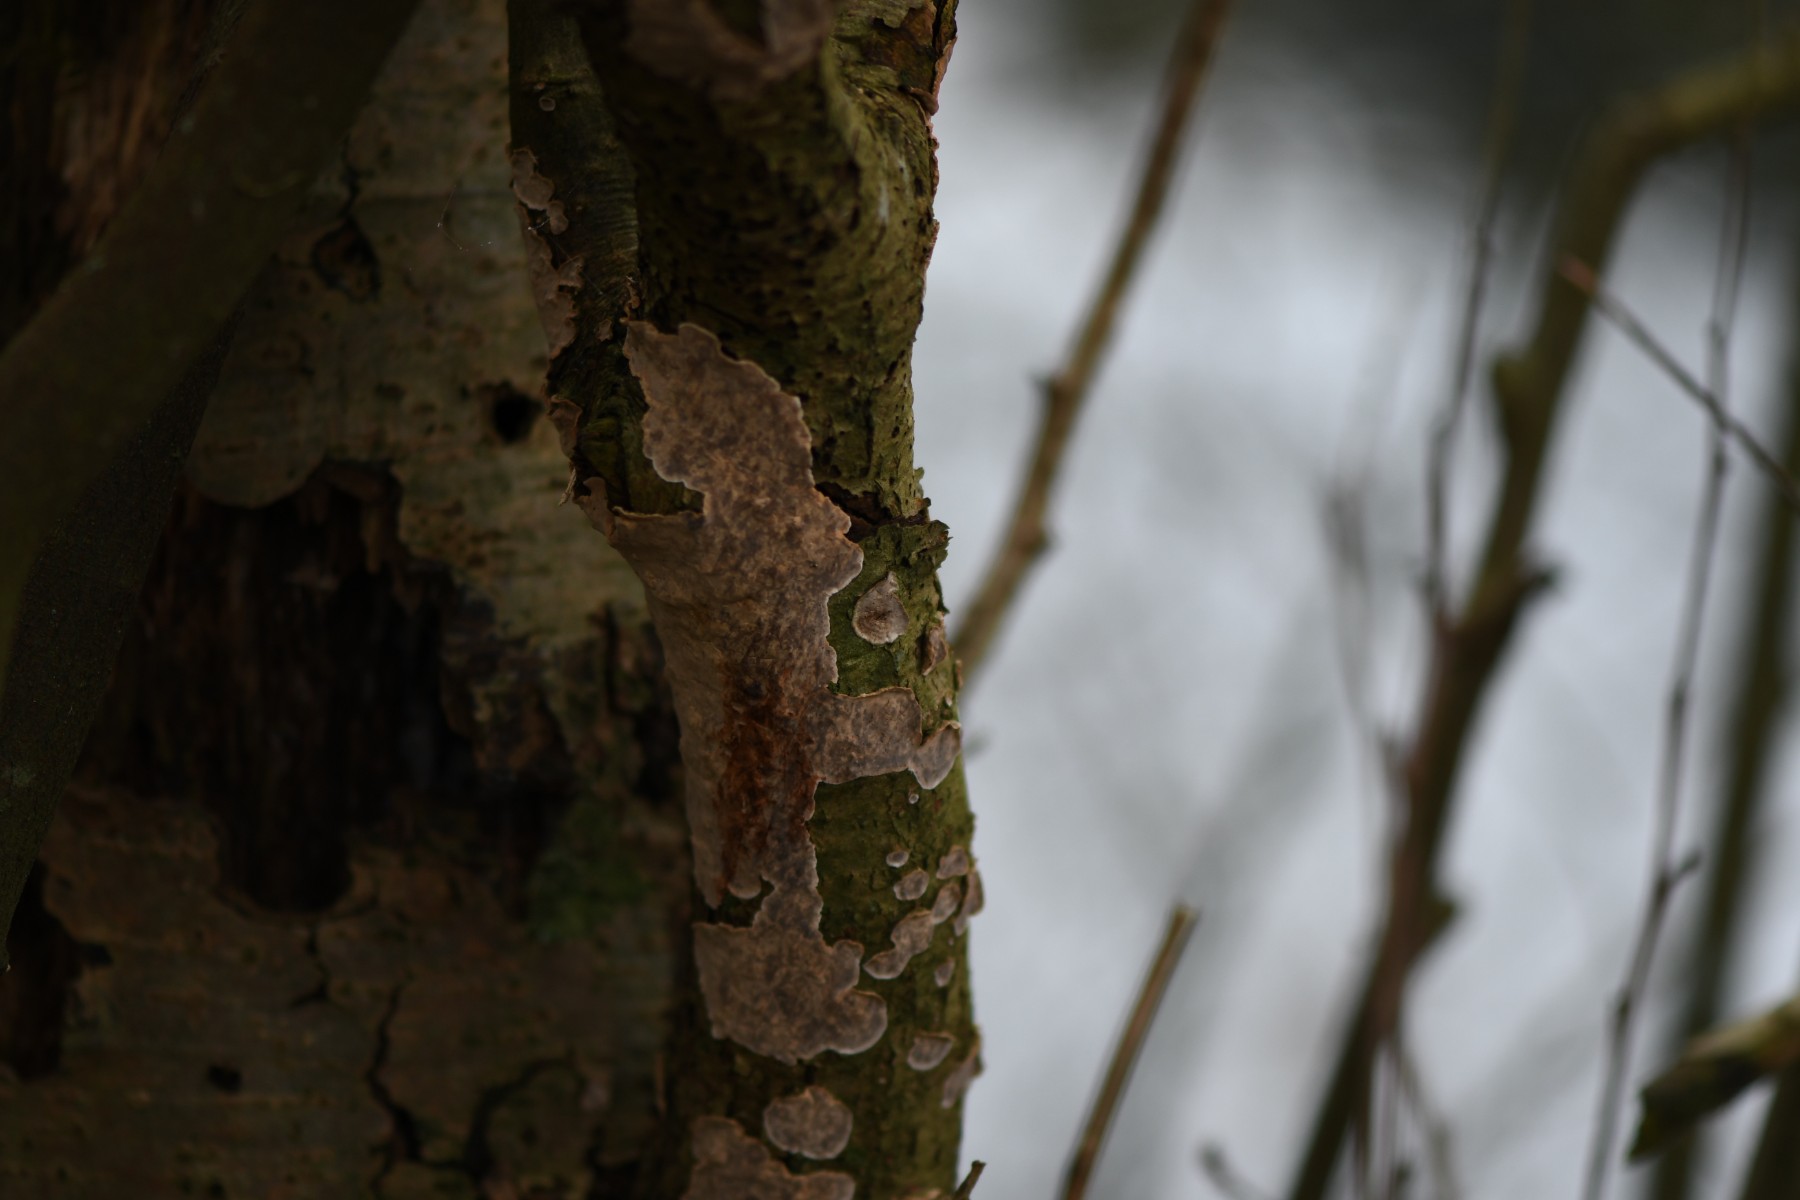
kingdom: Fungi
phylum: Basidiomycota
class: Agaricomycetes
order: Russulales
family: Stereaceae
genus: Stereum
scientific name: Stereum rugosum
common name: rynket lædersvamp
